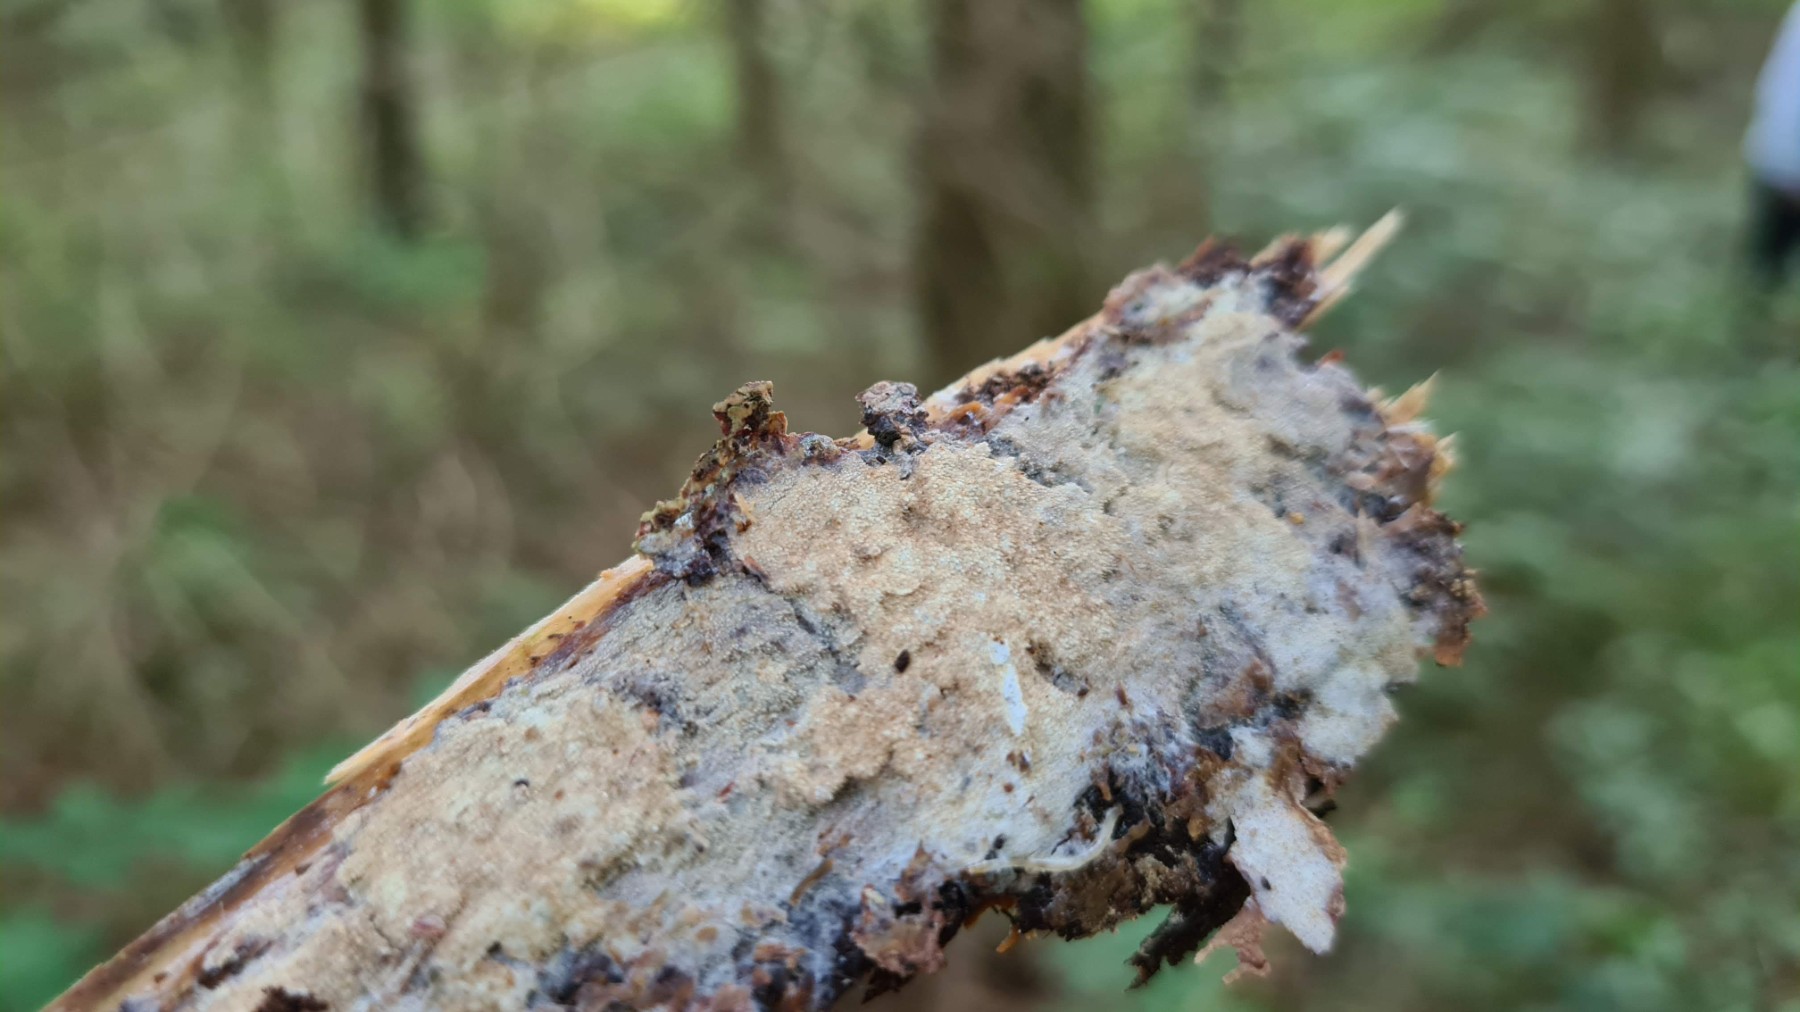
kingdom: Fungi
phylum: Basidiomycota
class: Agaricomycetes
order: Hymenochaetales
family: Rickenellaceae
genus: Resinicium
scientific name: Resinicium bicolor
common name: almindelig vokstand
